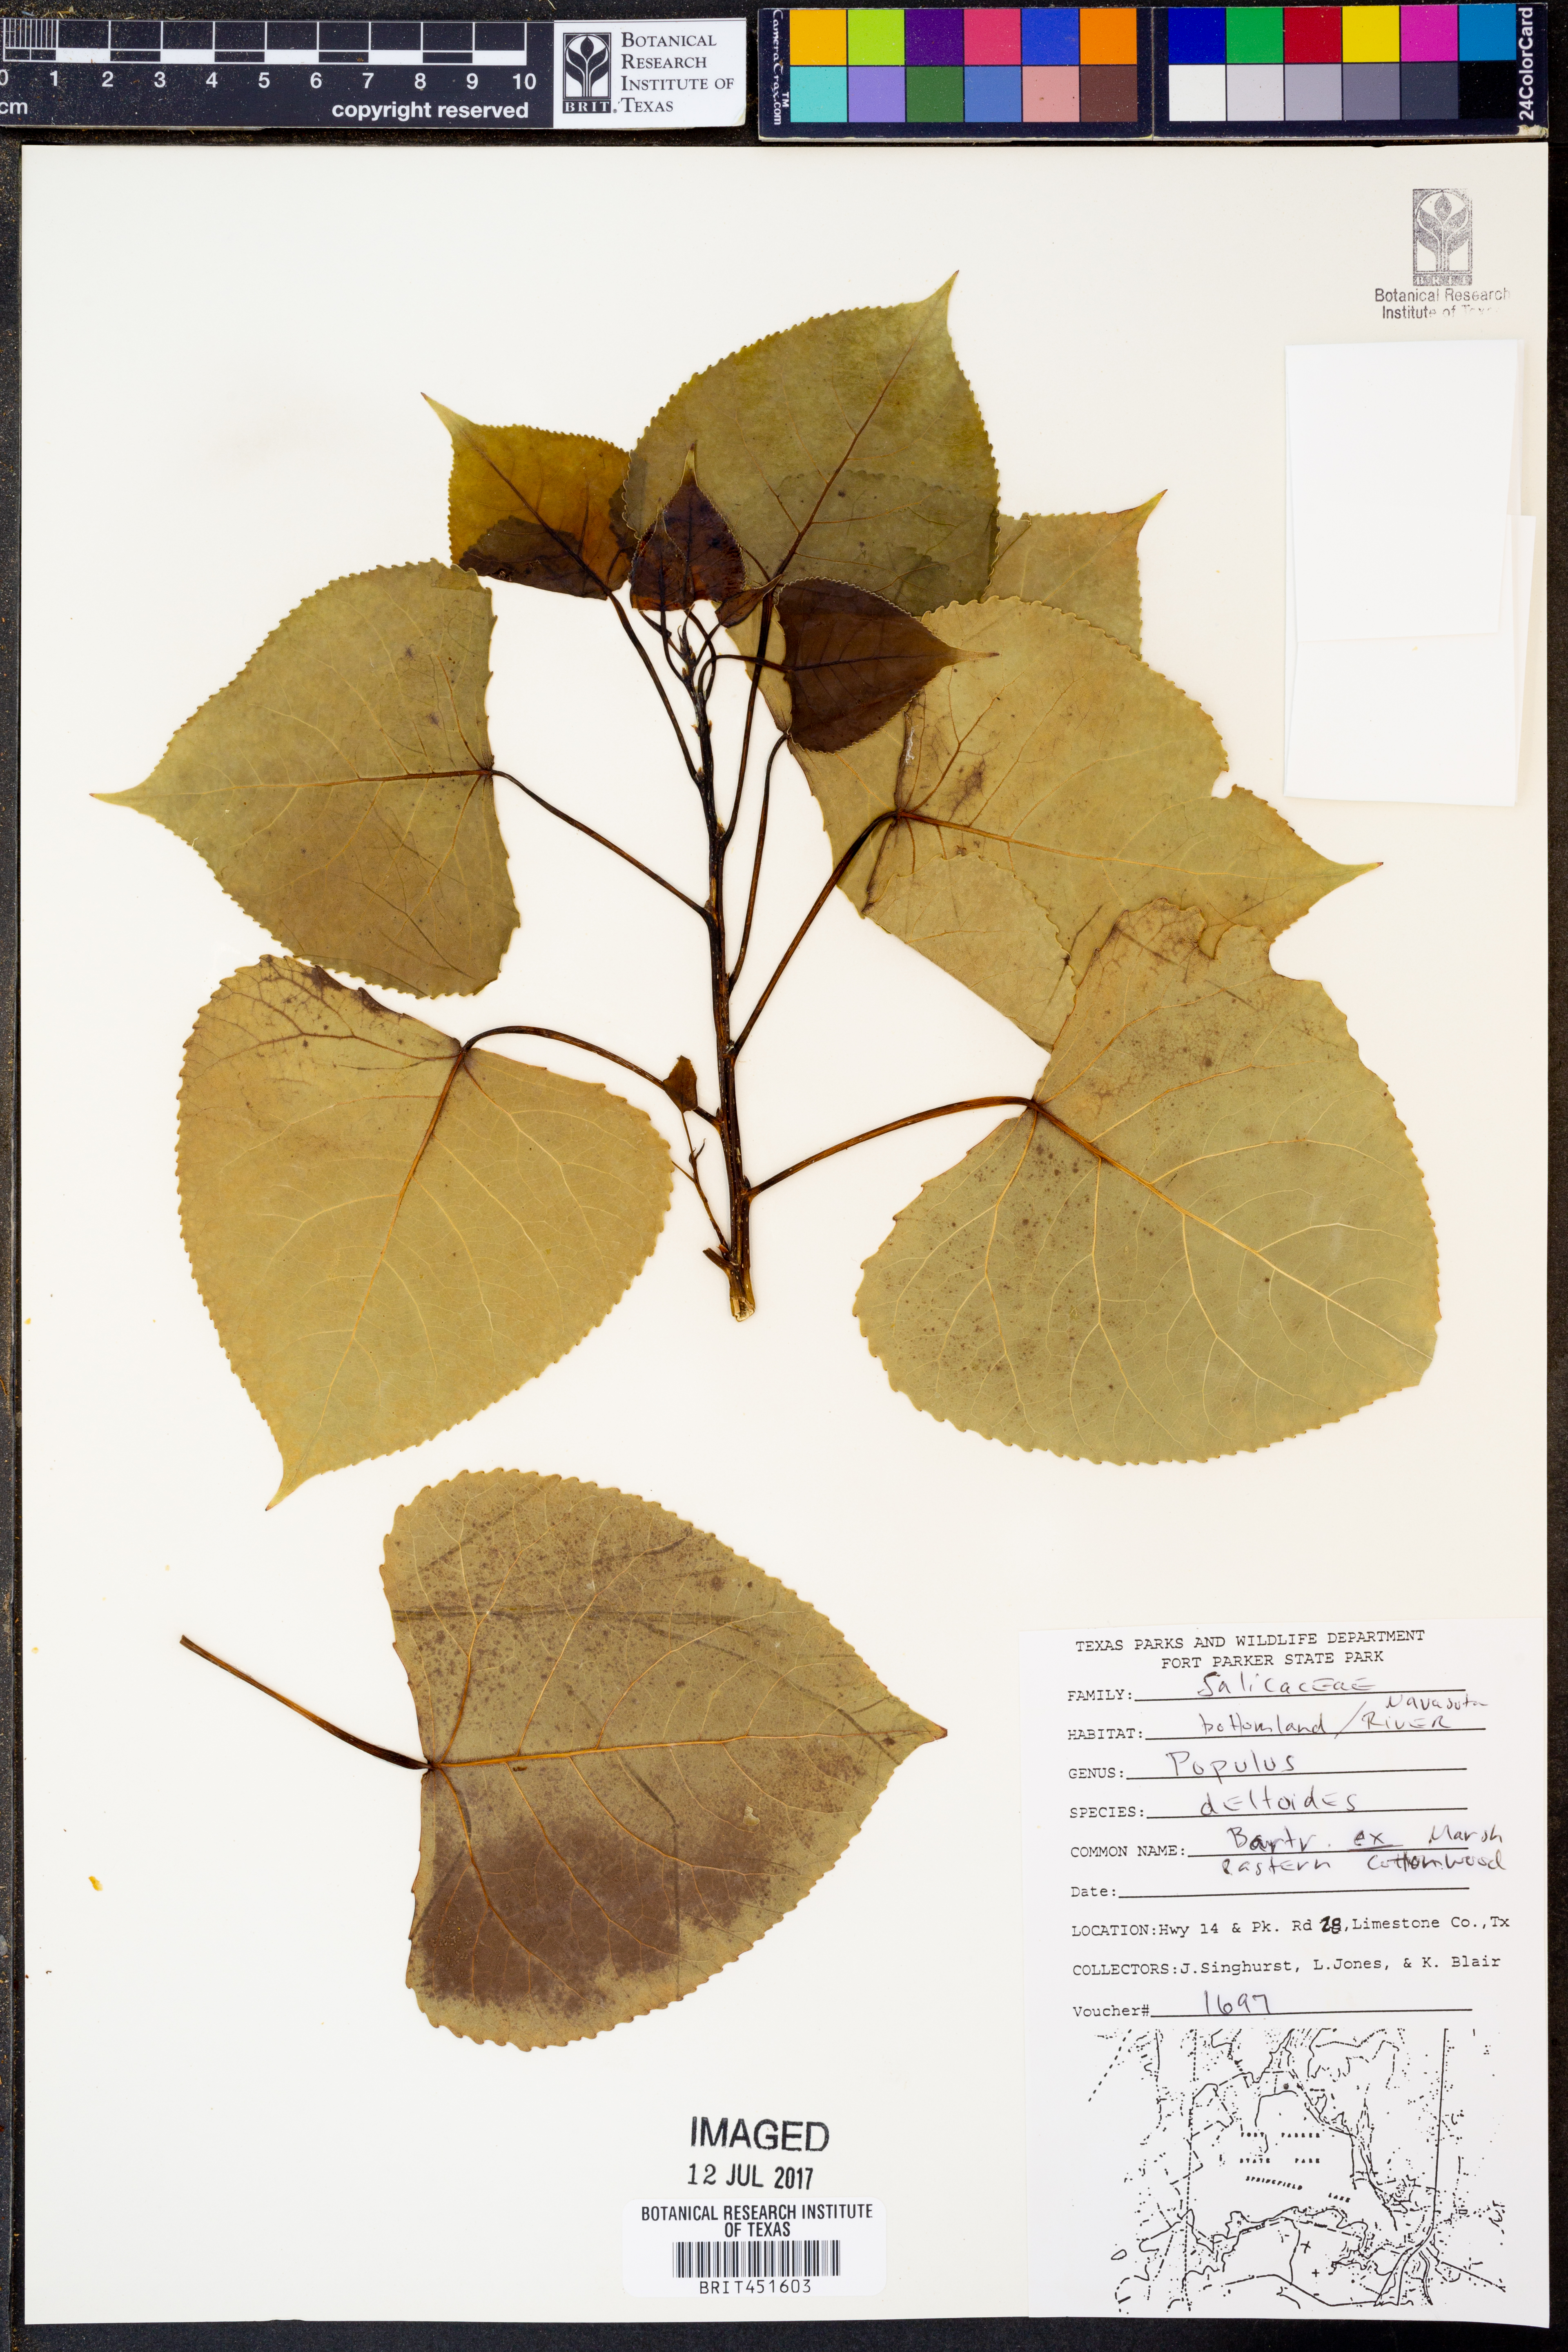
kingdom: Plantae
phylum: Tracheophyta
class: Magnoliopsida
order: Malpighiales
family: Salicaceae
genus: Populus
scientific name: Populus deltoides
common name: Eastern cottonwood
